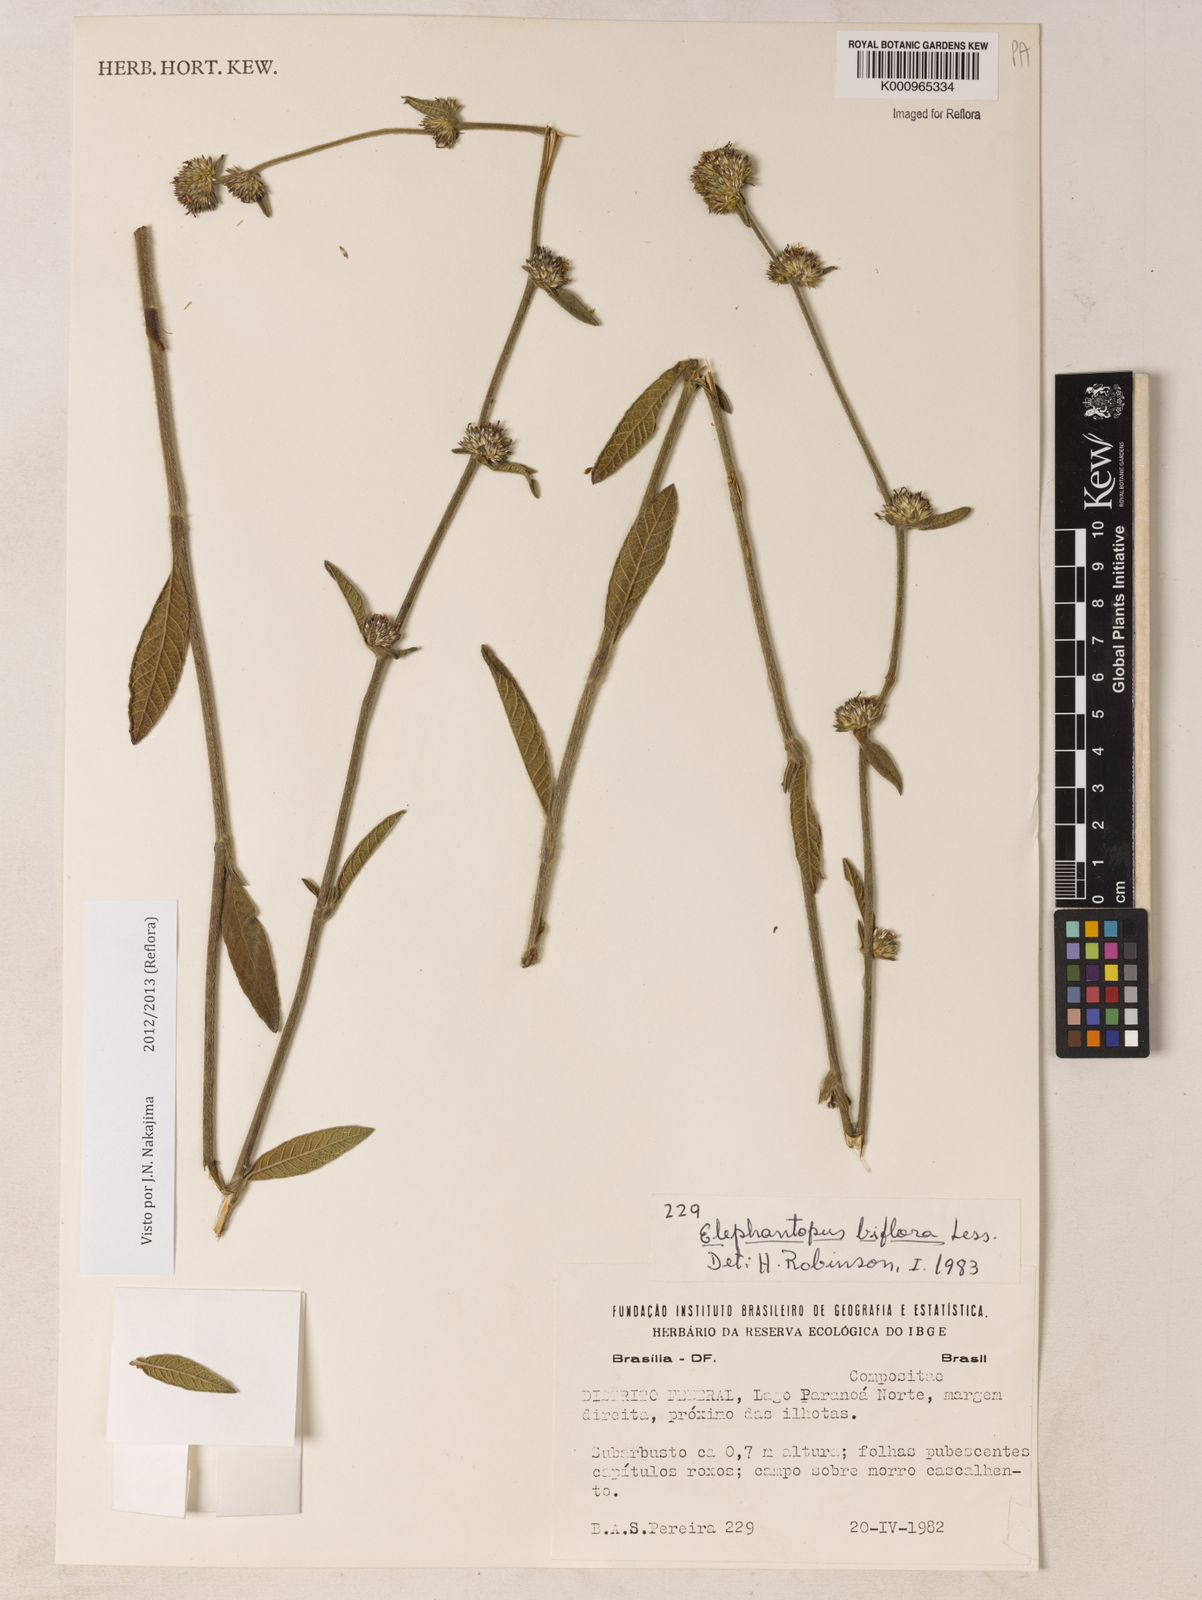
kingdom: Plantae
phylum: Tracheophyta
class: Magnoliopsida
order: Asterales
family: Asteraceae
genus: Elephantopus
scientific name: Elephantopus biflorus
